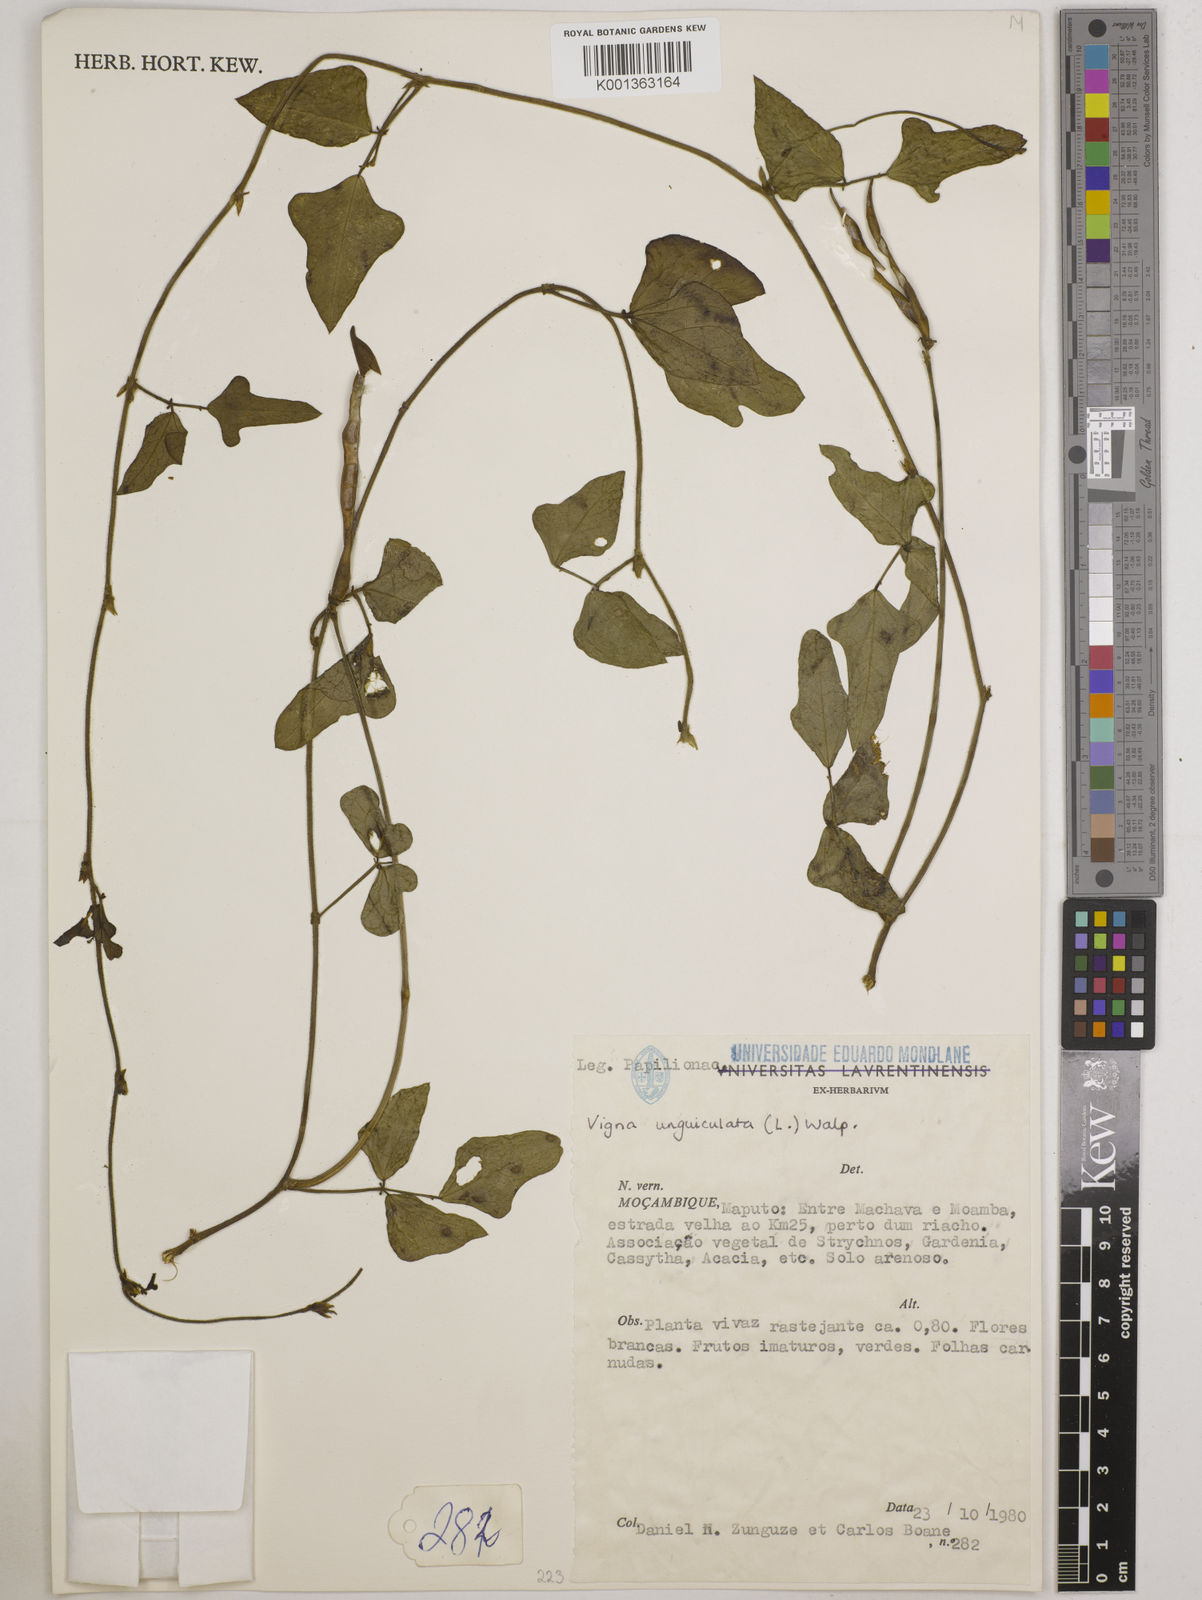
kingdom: Plantae
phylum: Tracheophyta
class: Magnoliopsida
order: Fabales
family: Fabaceae
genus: Vigna
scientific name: Vigna
